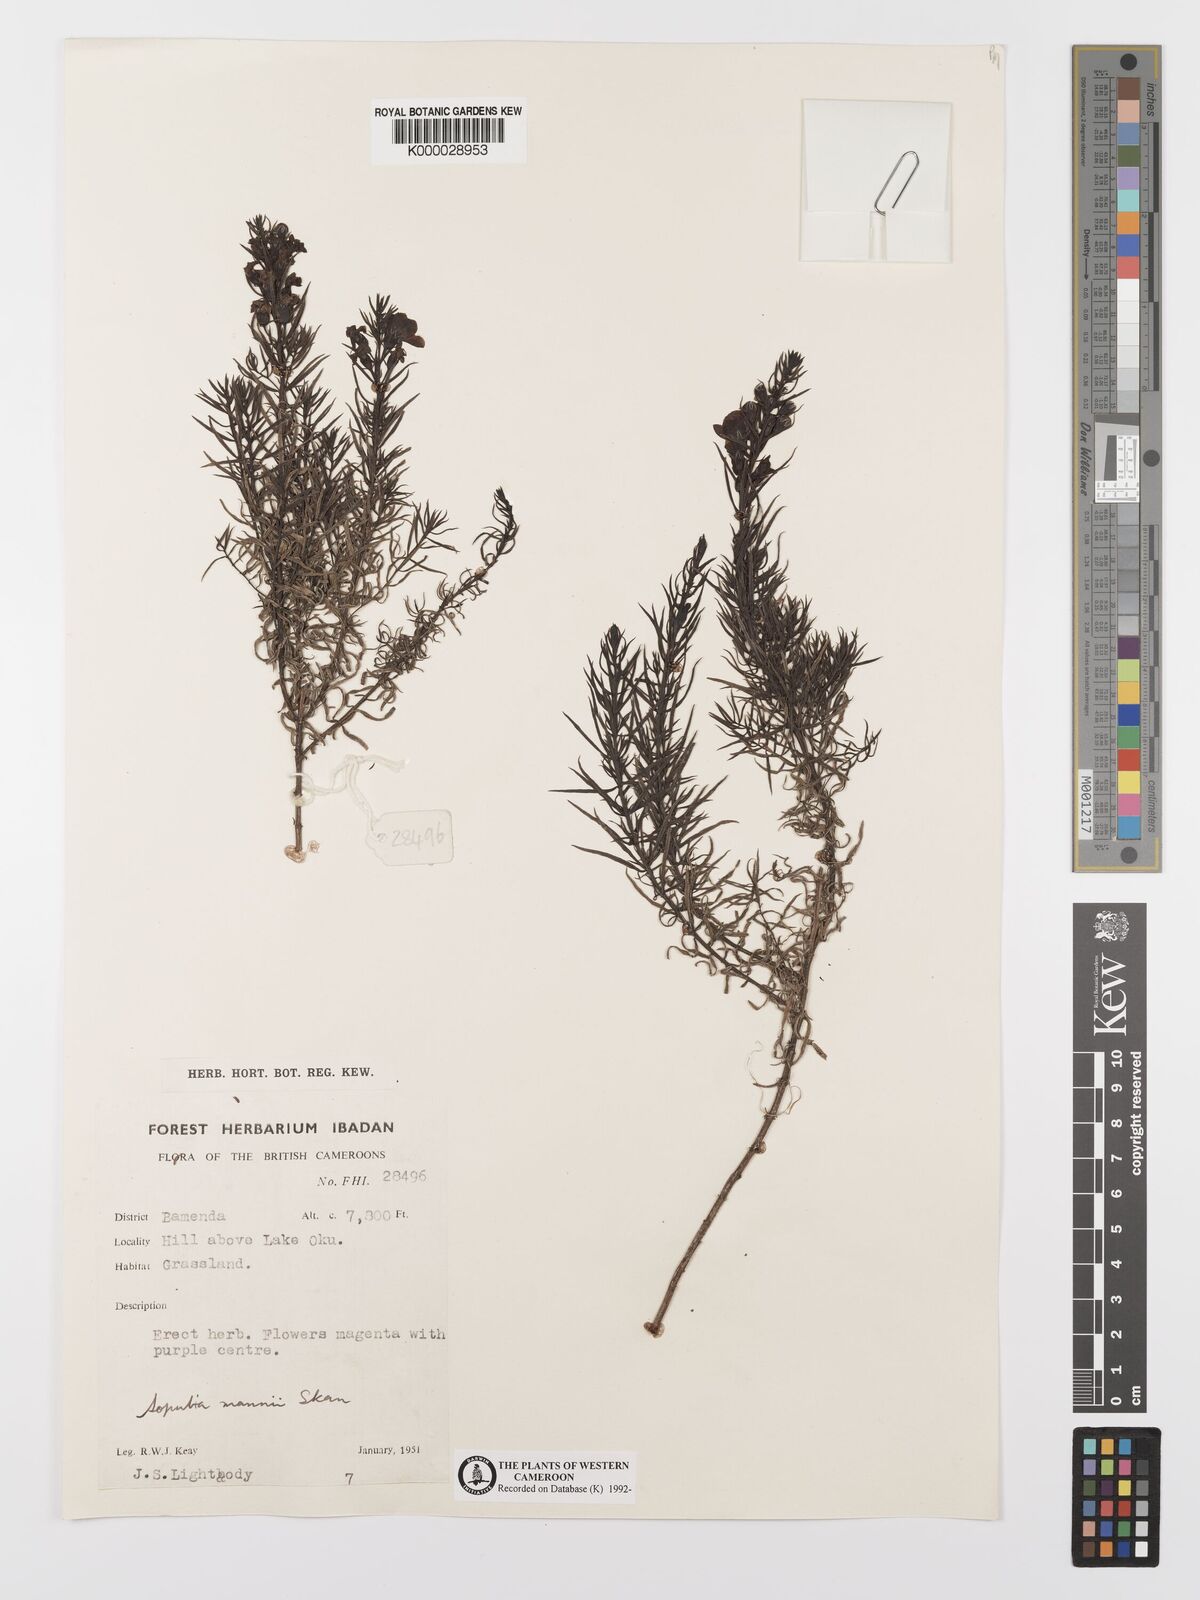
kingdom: Plantae
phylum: Tracheophyta
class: Magnoliopsida
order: Lamiales
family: Orobanchaceae
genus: Sopubia
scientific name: Sopubia mannii
